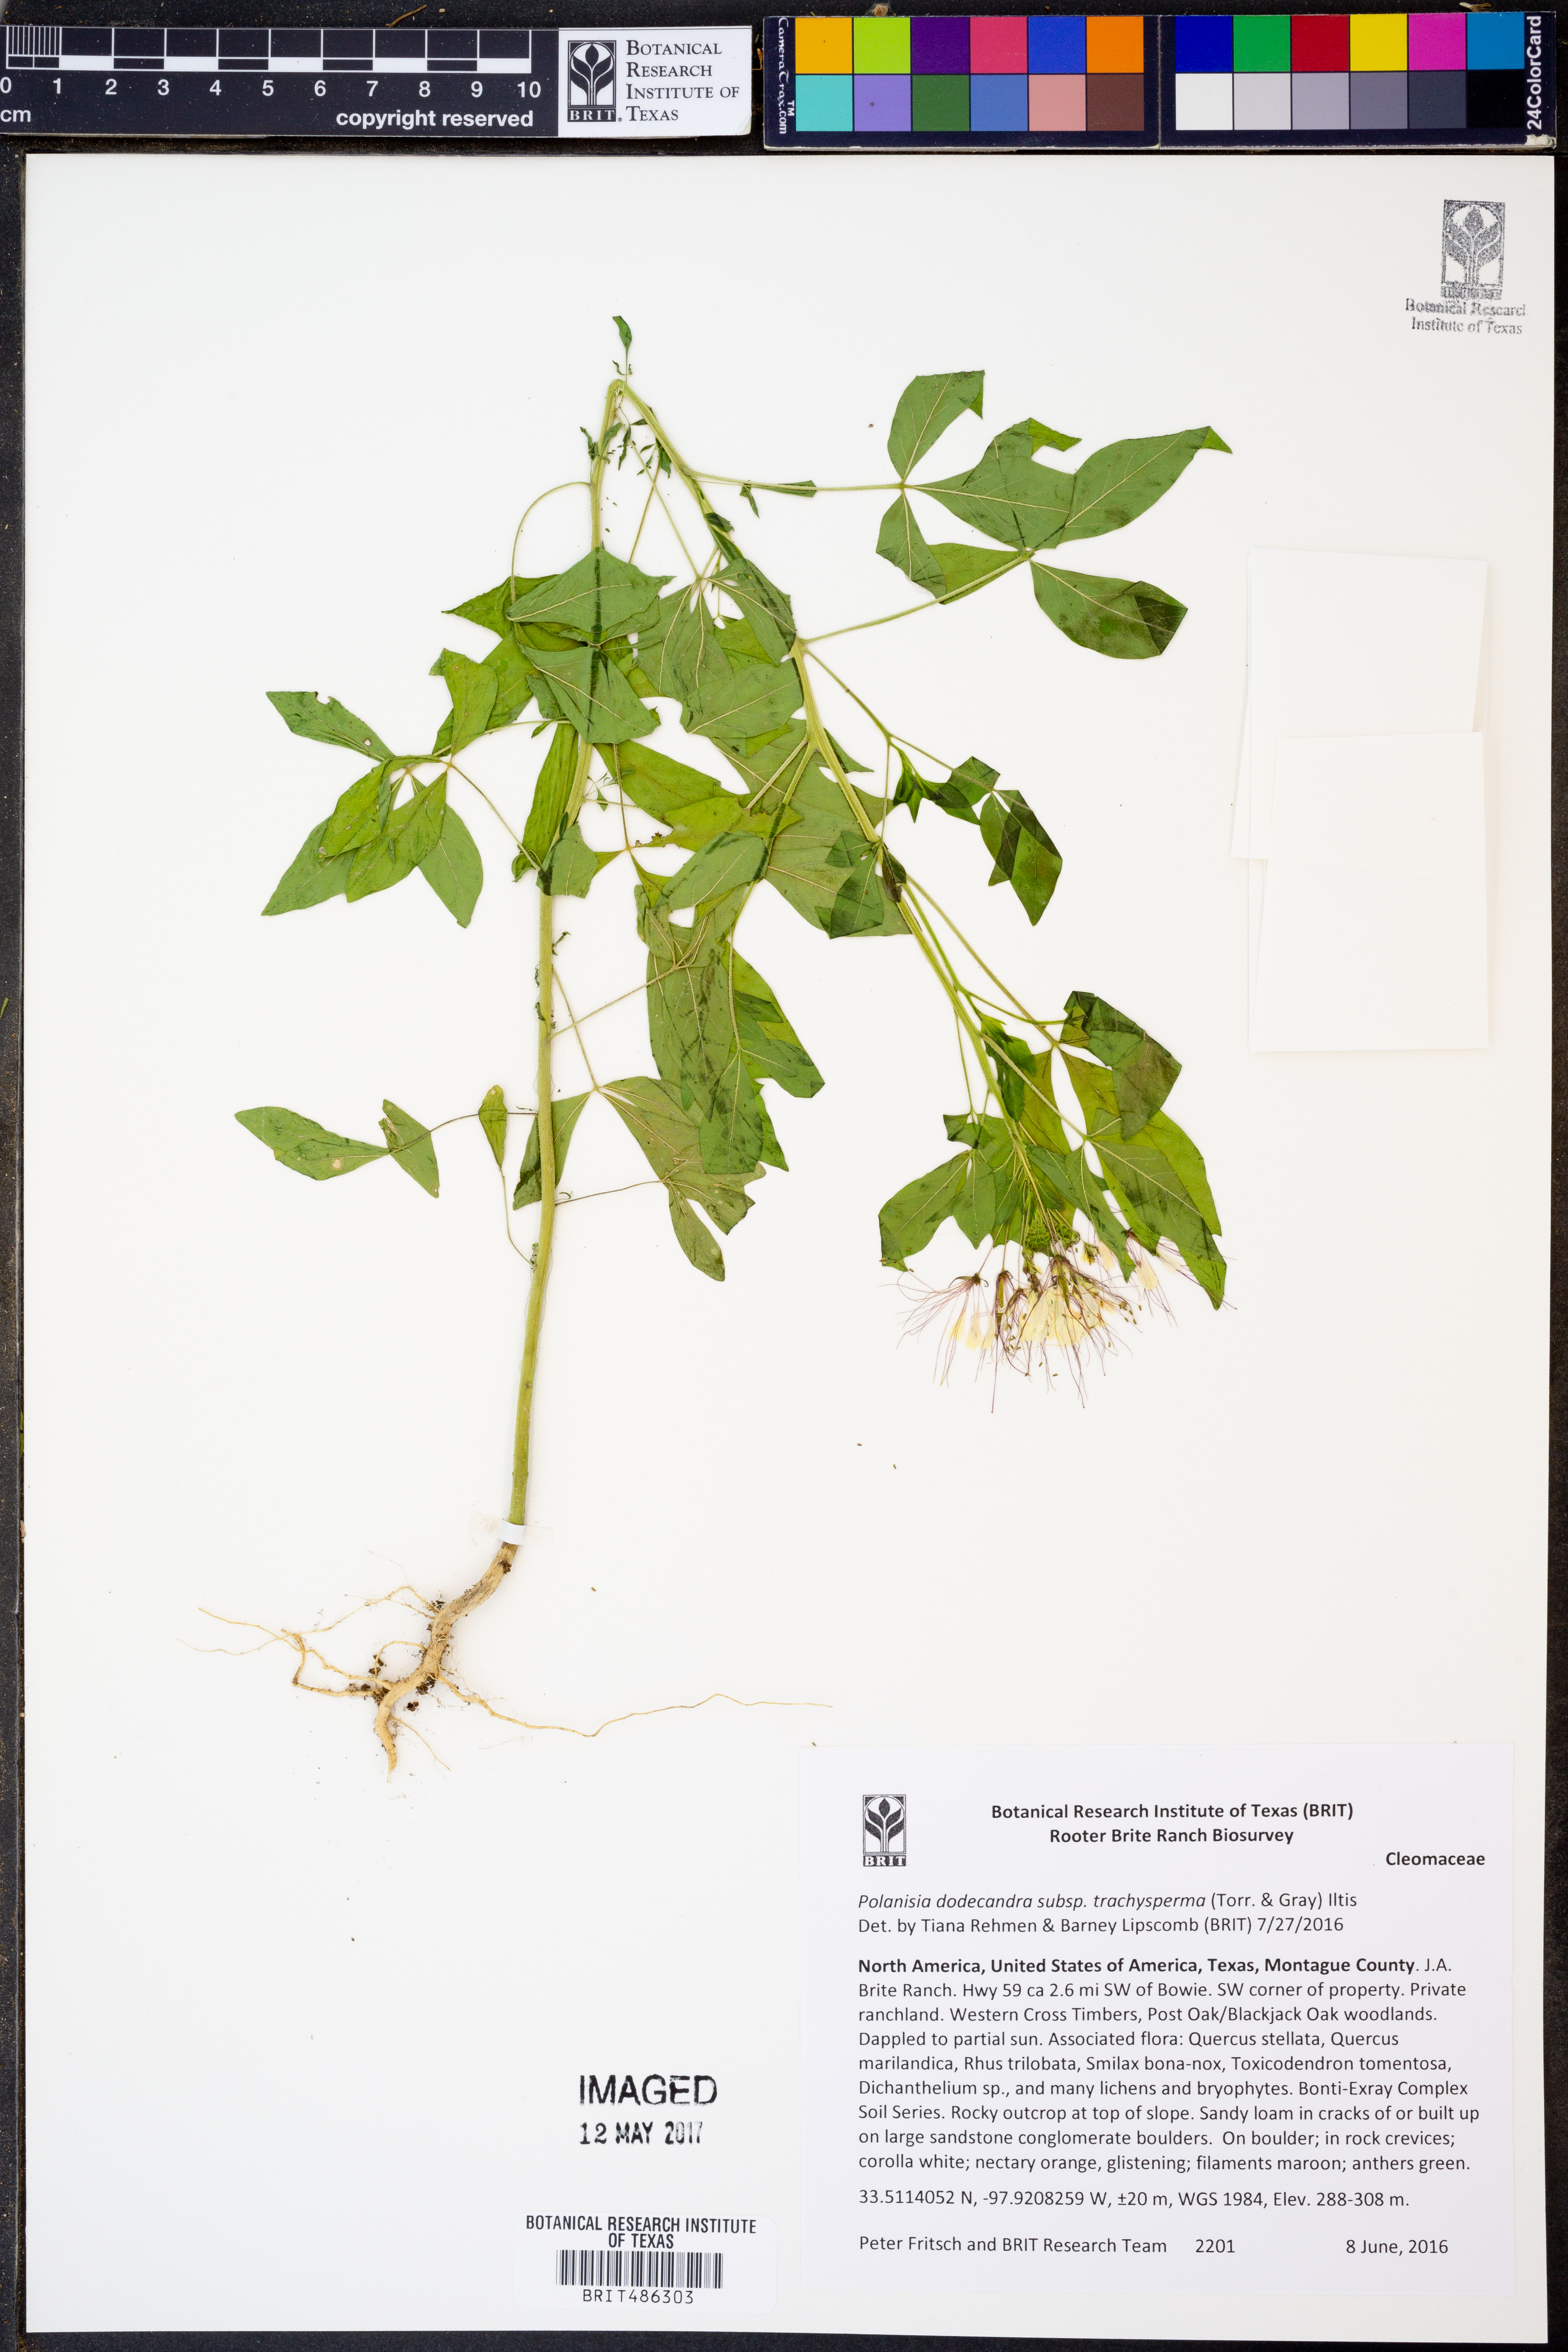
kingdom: Plantae
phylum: Tracheophyta
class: Magnoliopsida
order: Brassicales
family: Cleomaceae
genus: Polanisia
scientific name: Polanisia trachysperma
